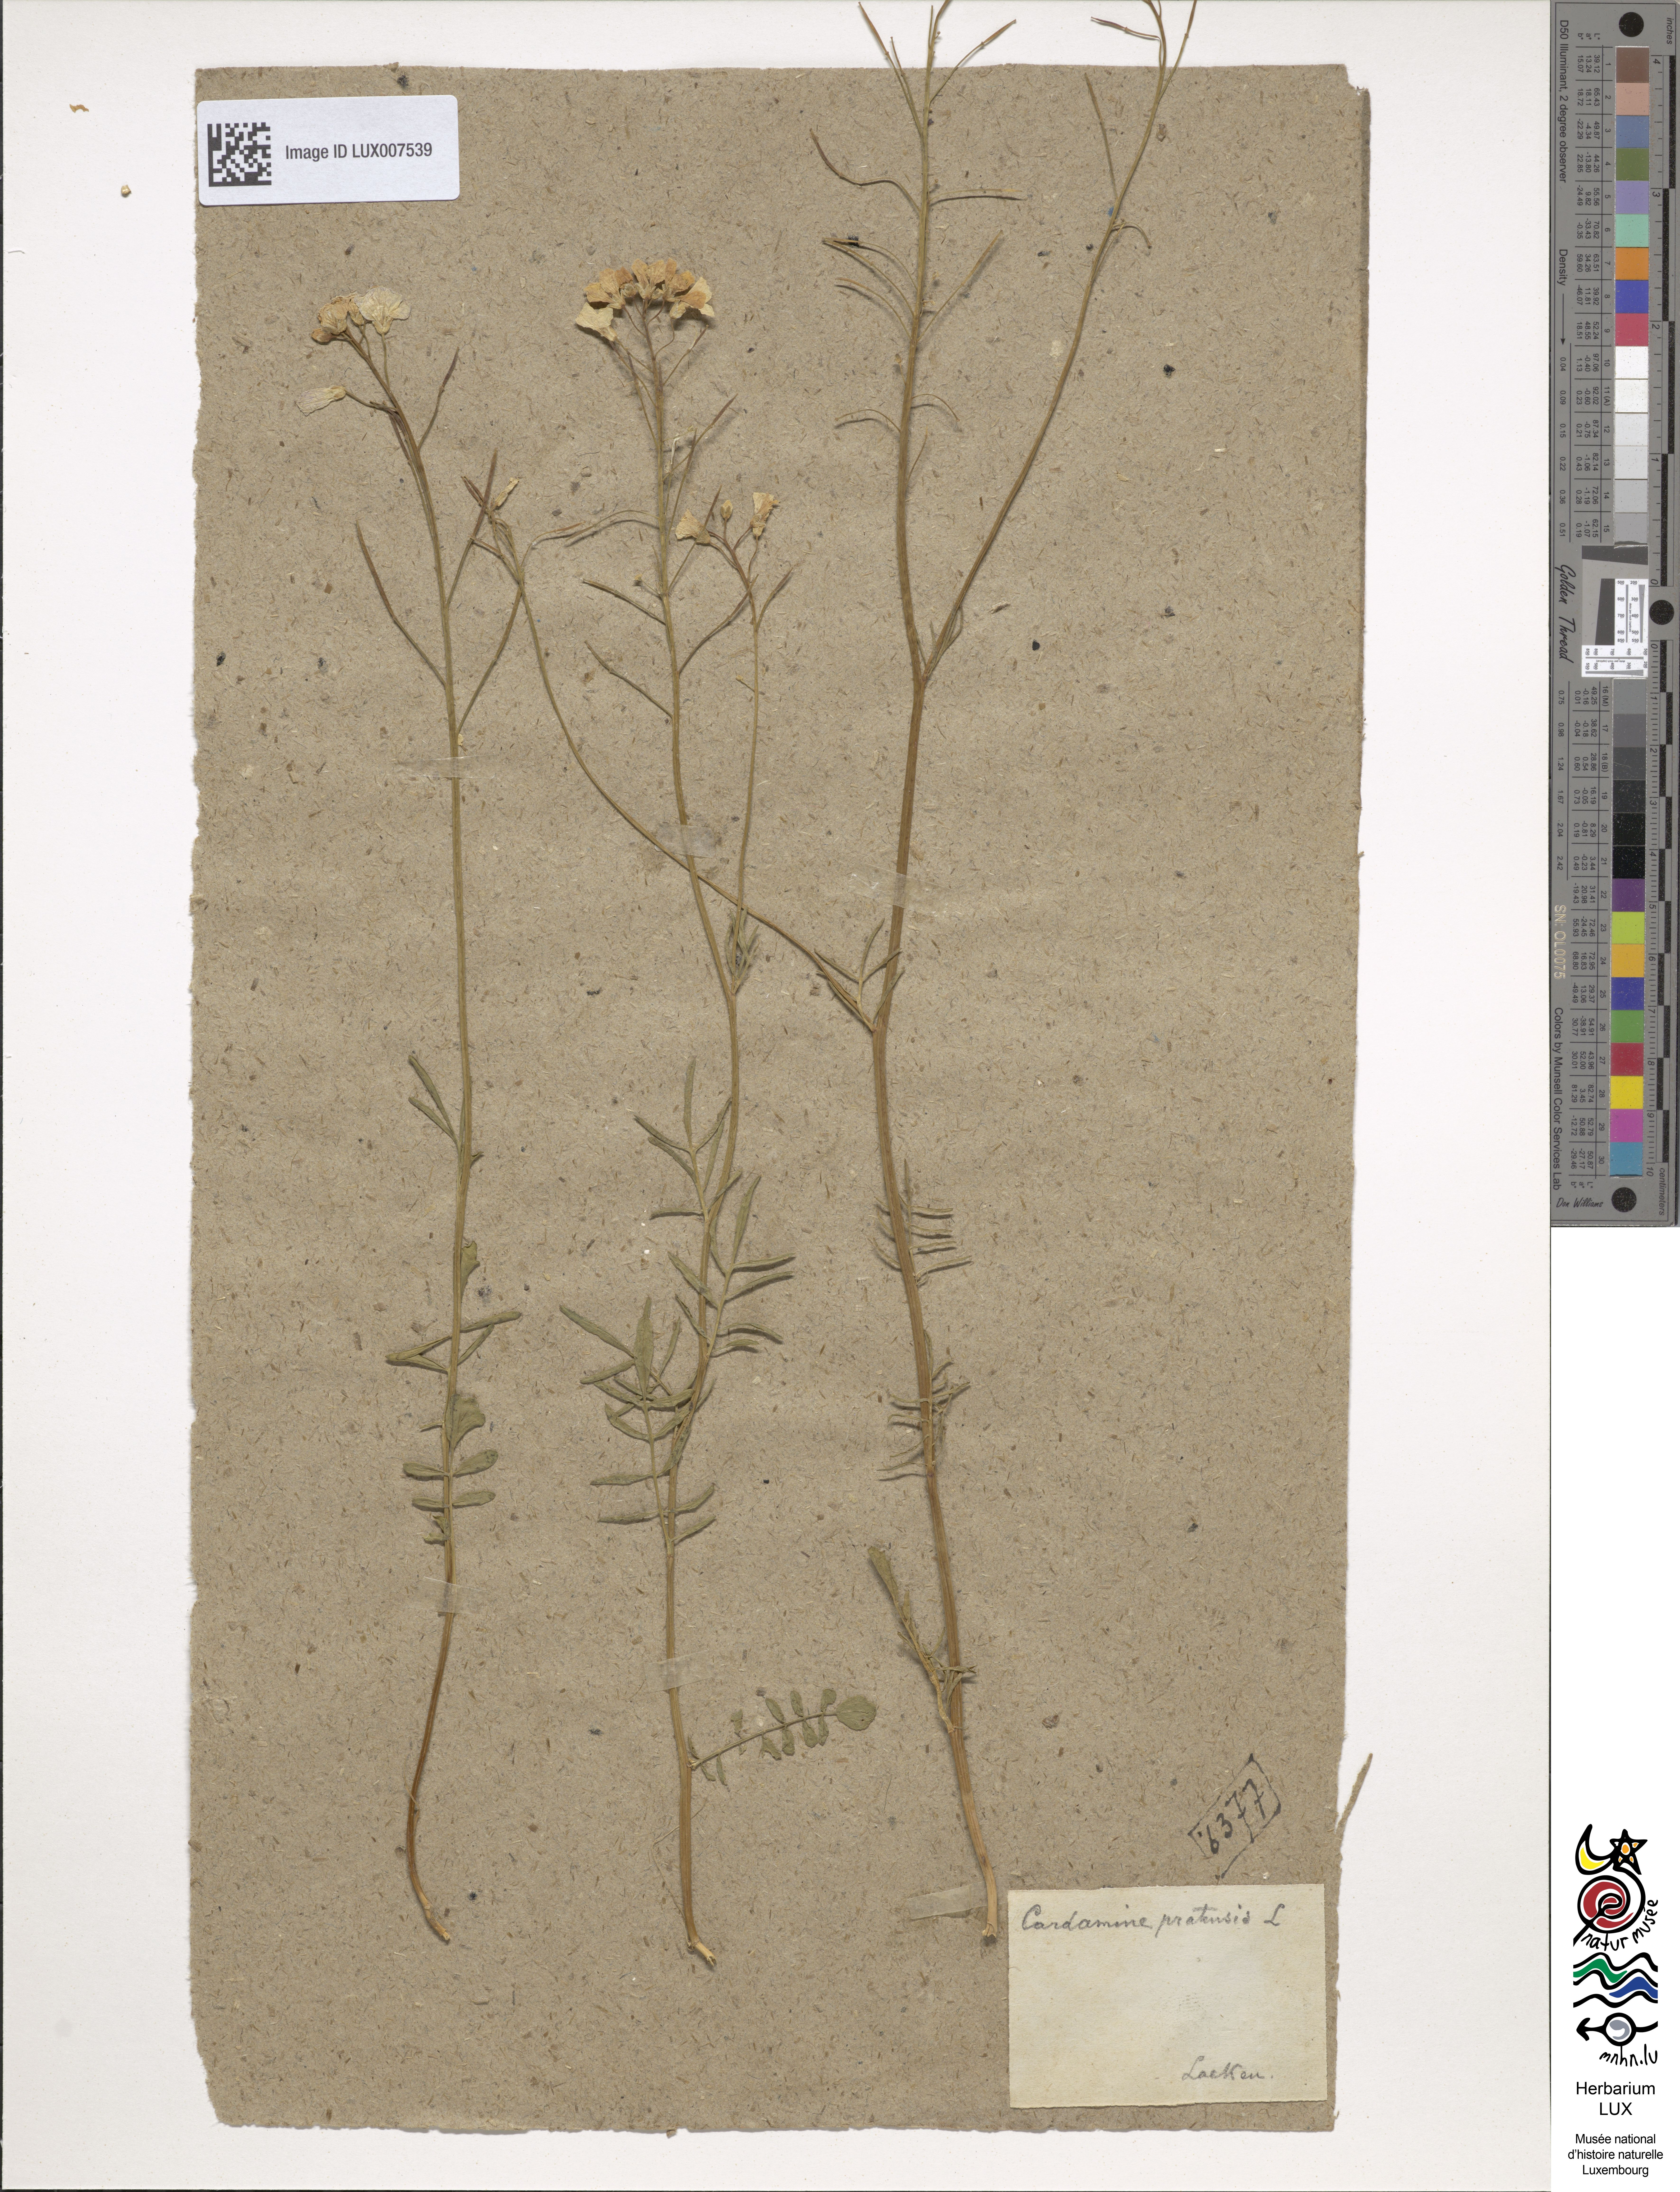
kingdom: Plantae
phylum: Tracheophyta
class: Magnoliopsida
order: Brassicales
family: Brassicaceae
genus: Cardamine
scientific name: Cardamine pratensis
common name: Cuckoo flower
